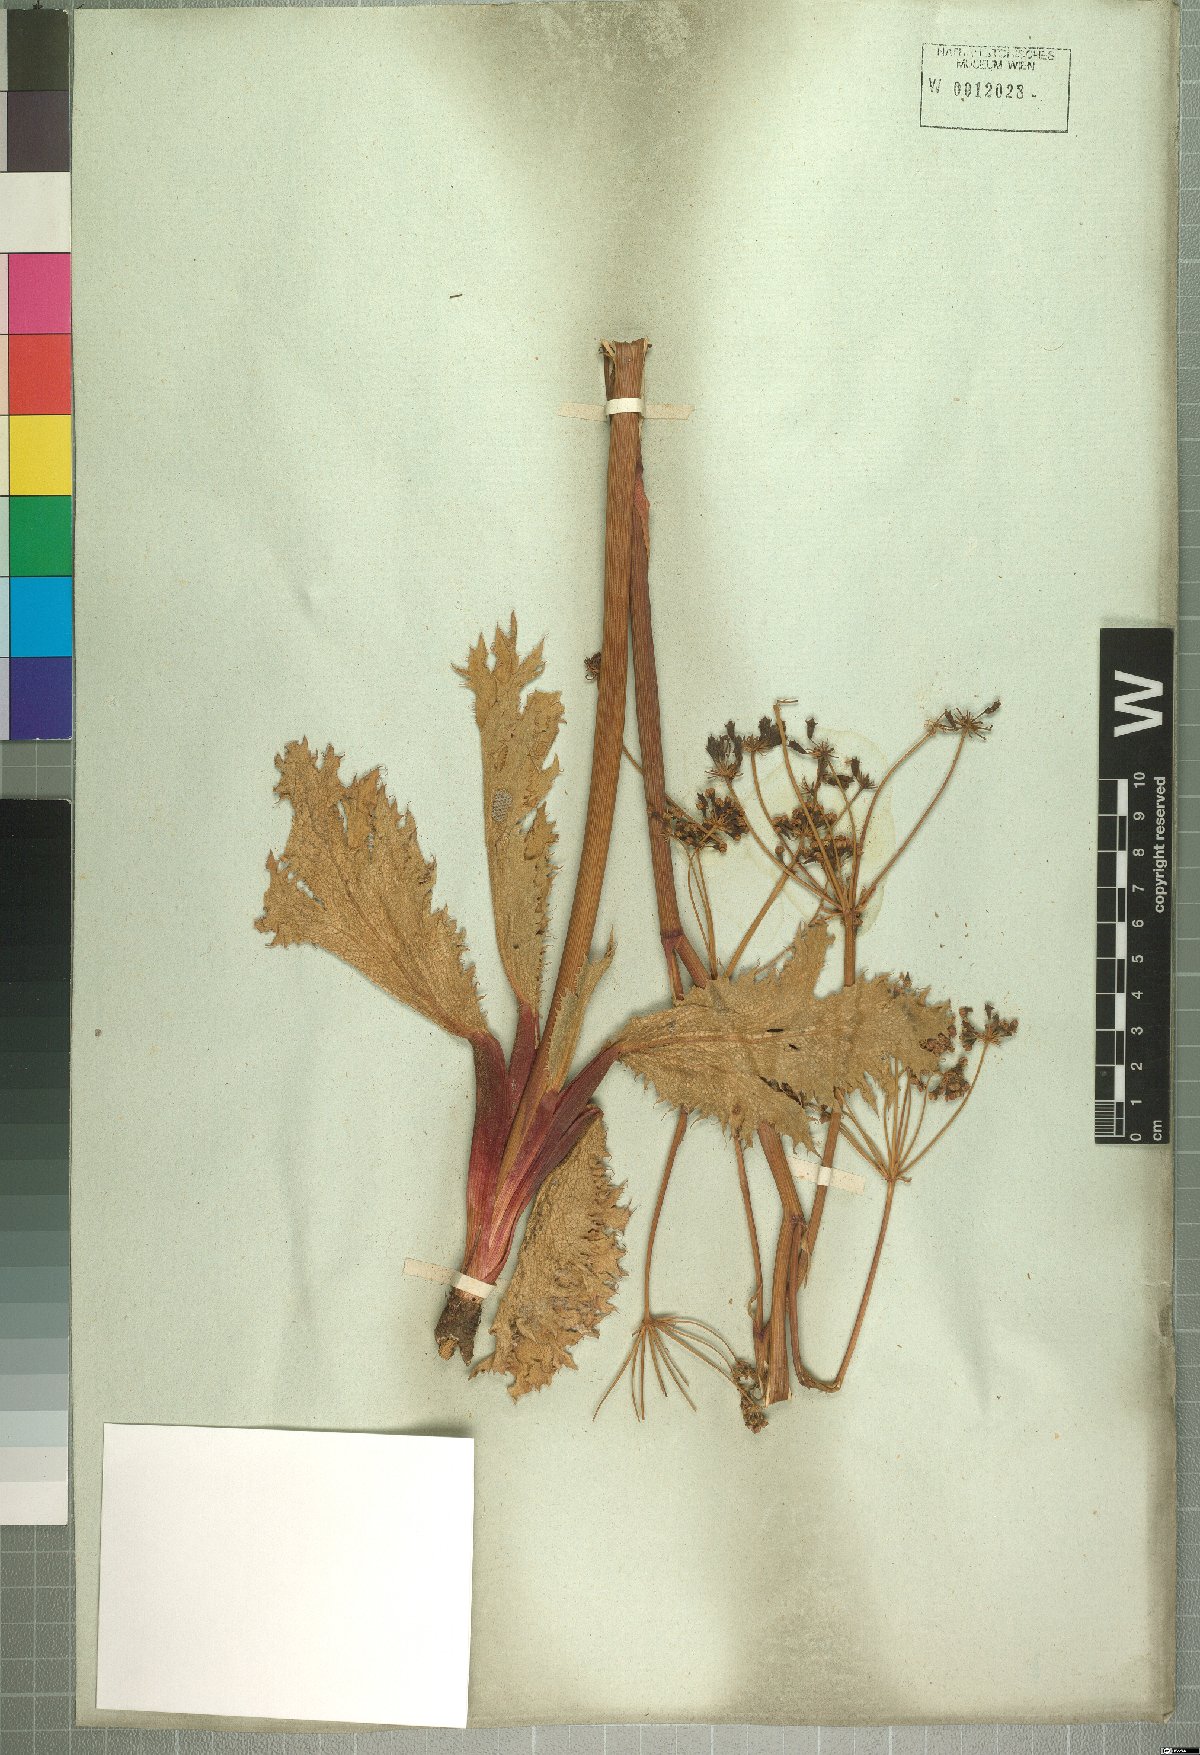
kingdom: Plantae
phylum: Tracheophyta
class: Magnoliopsida
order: Apiales
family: Apiaceae
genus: Lichtensteinia
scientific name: Lichtensteinia lacera
